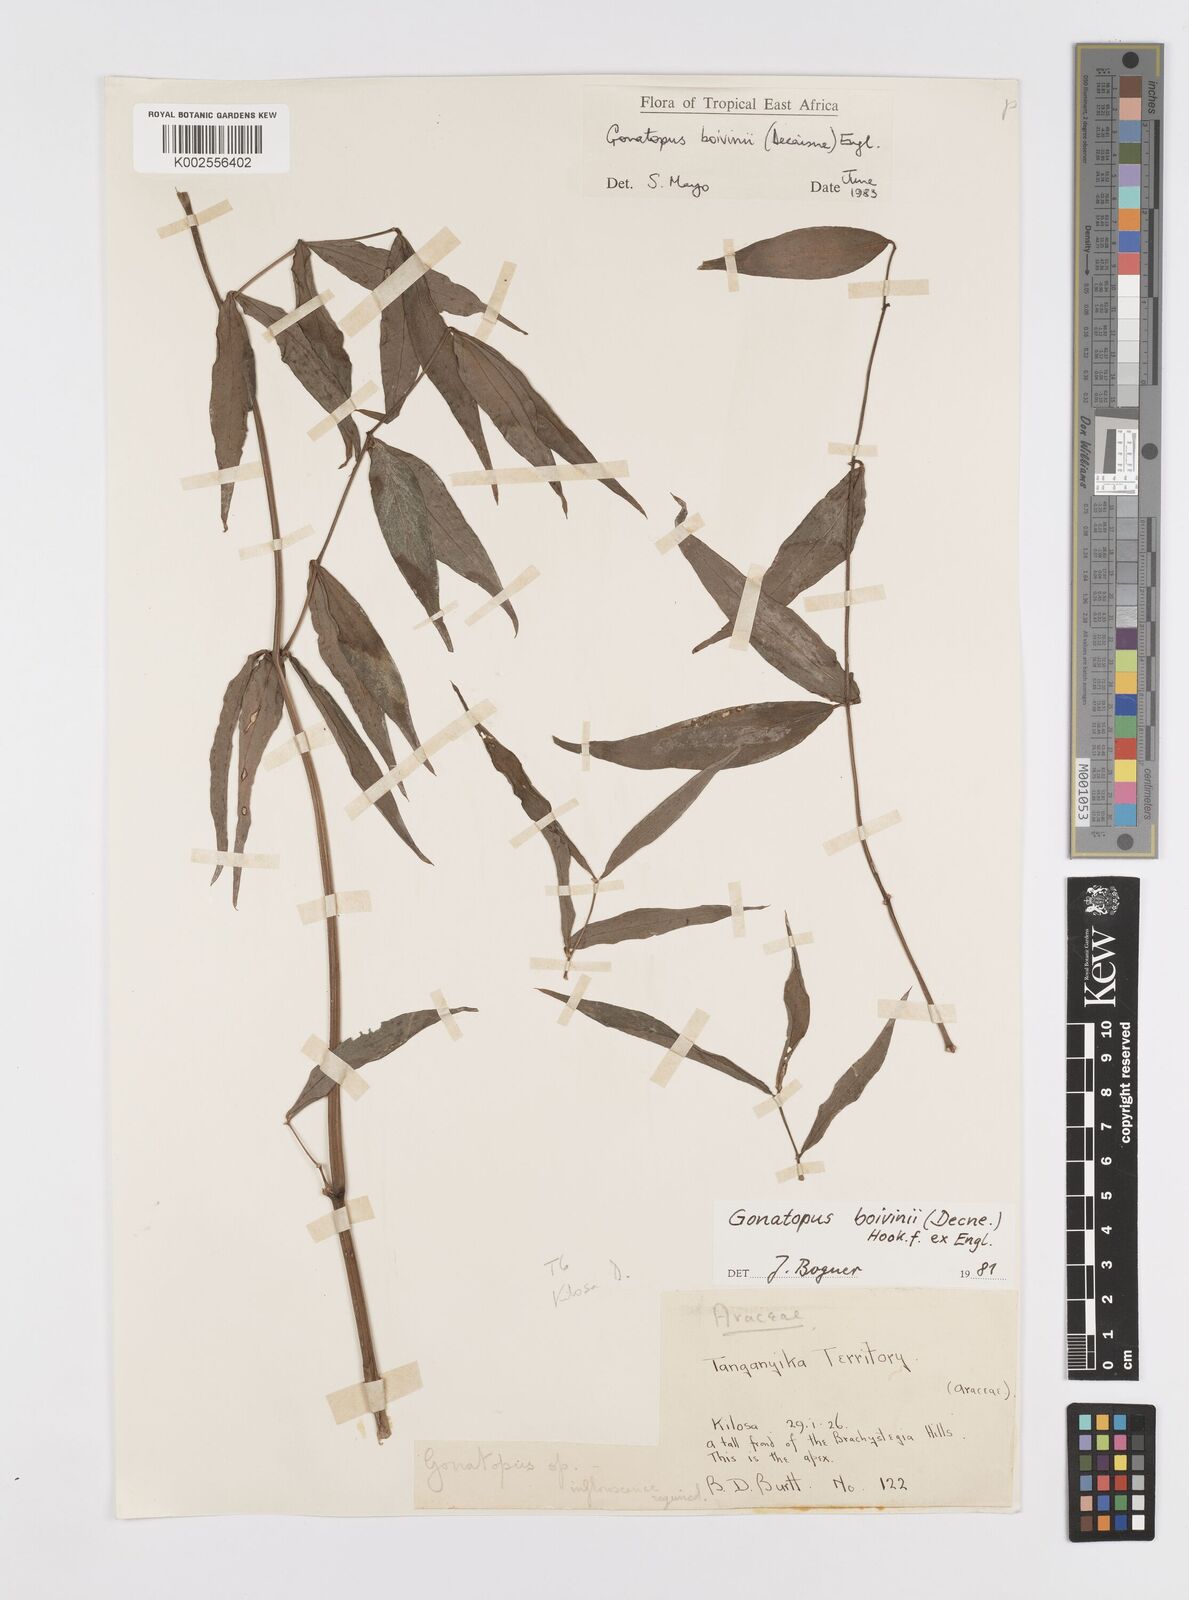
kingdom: Plantae
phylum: Tracheophyta
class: Liliopsida
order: Alismatales
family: Araceae
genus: Gonatopus
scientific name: Gonatopus boivinii
